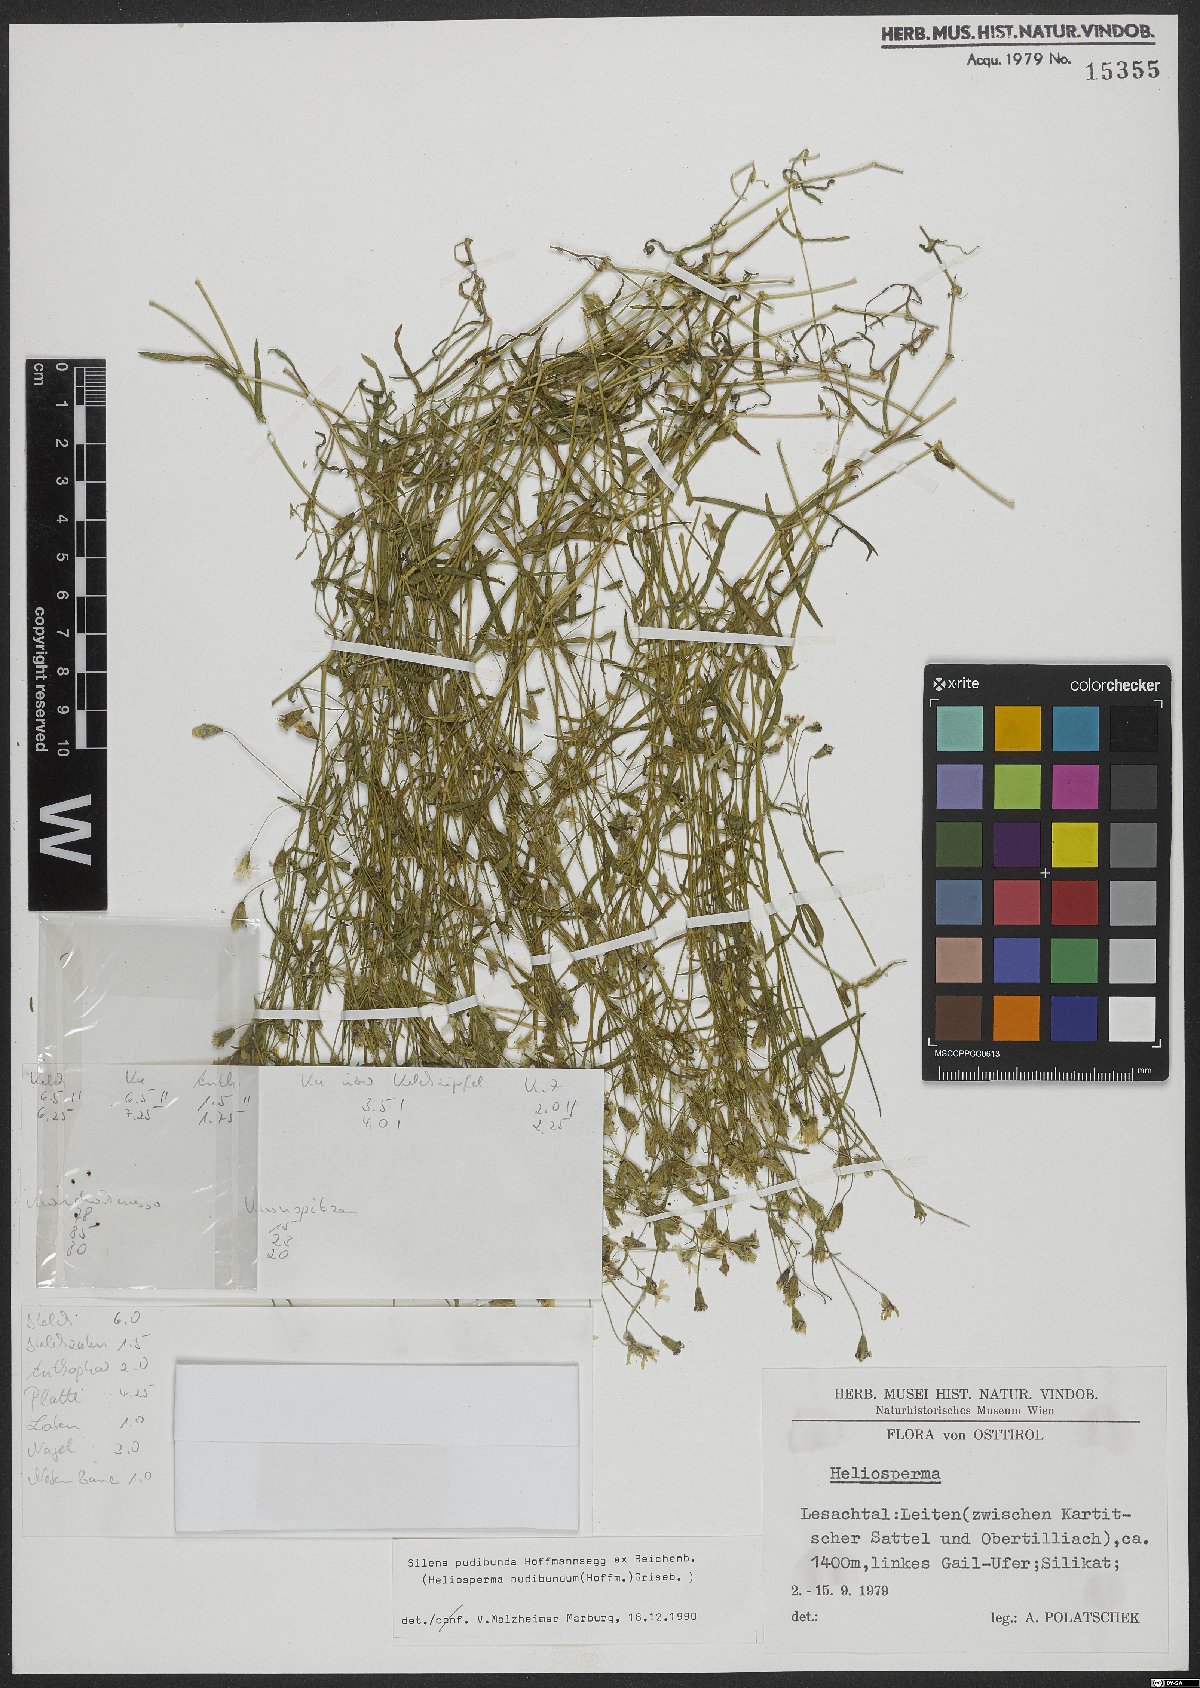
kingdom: Plantae
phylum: Tracheophyta
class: Magnoliopsida
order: Caryophyllales
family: Caryophyllaceae
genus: Heliosperma
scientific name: Heliosperma pudibundum
